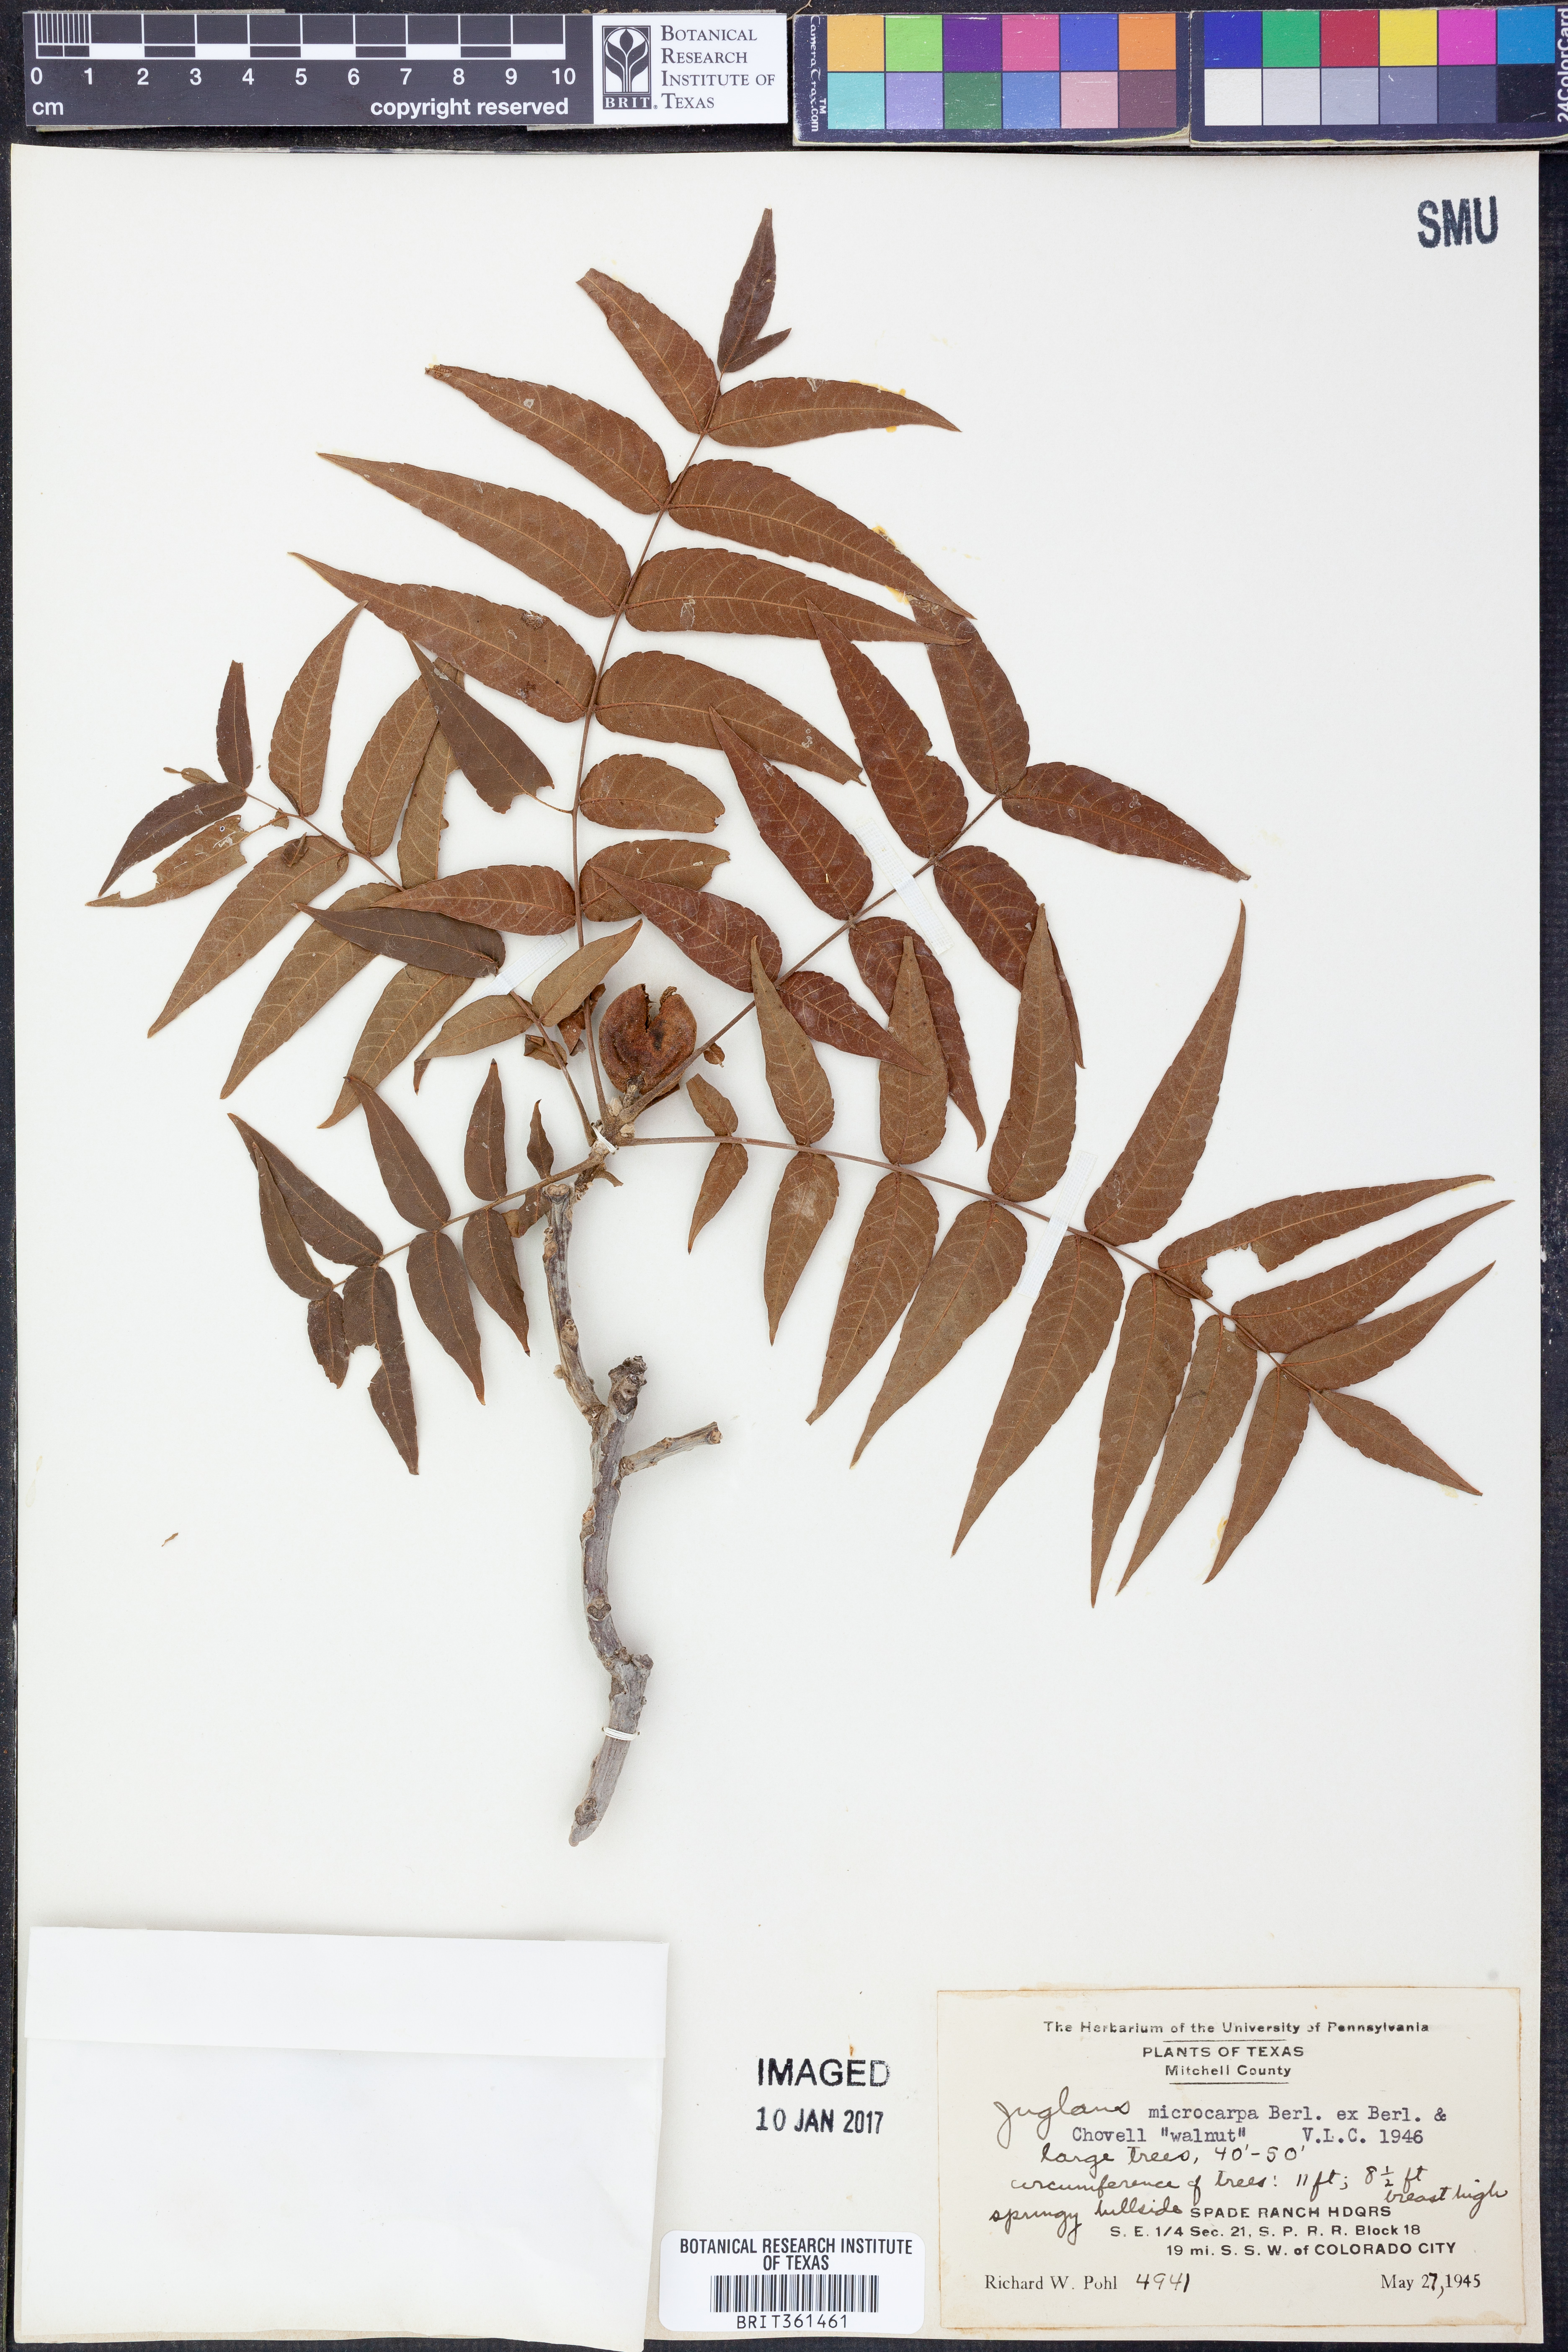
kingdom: Plantae
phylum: Tracheophyta
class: Magnoliopsida
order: Fagales
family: Juglandaceae
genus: Juglans
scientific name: Juglans microcarpa
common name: Texas walnut
